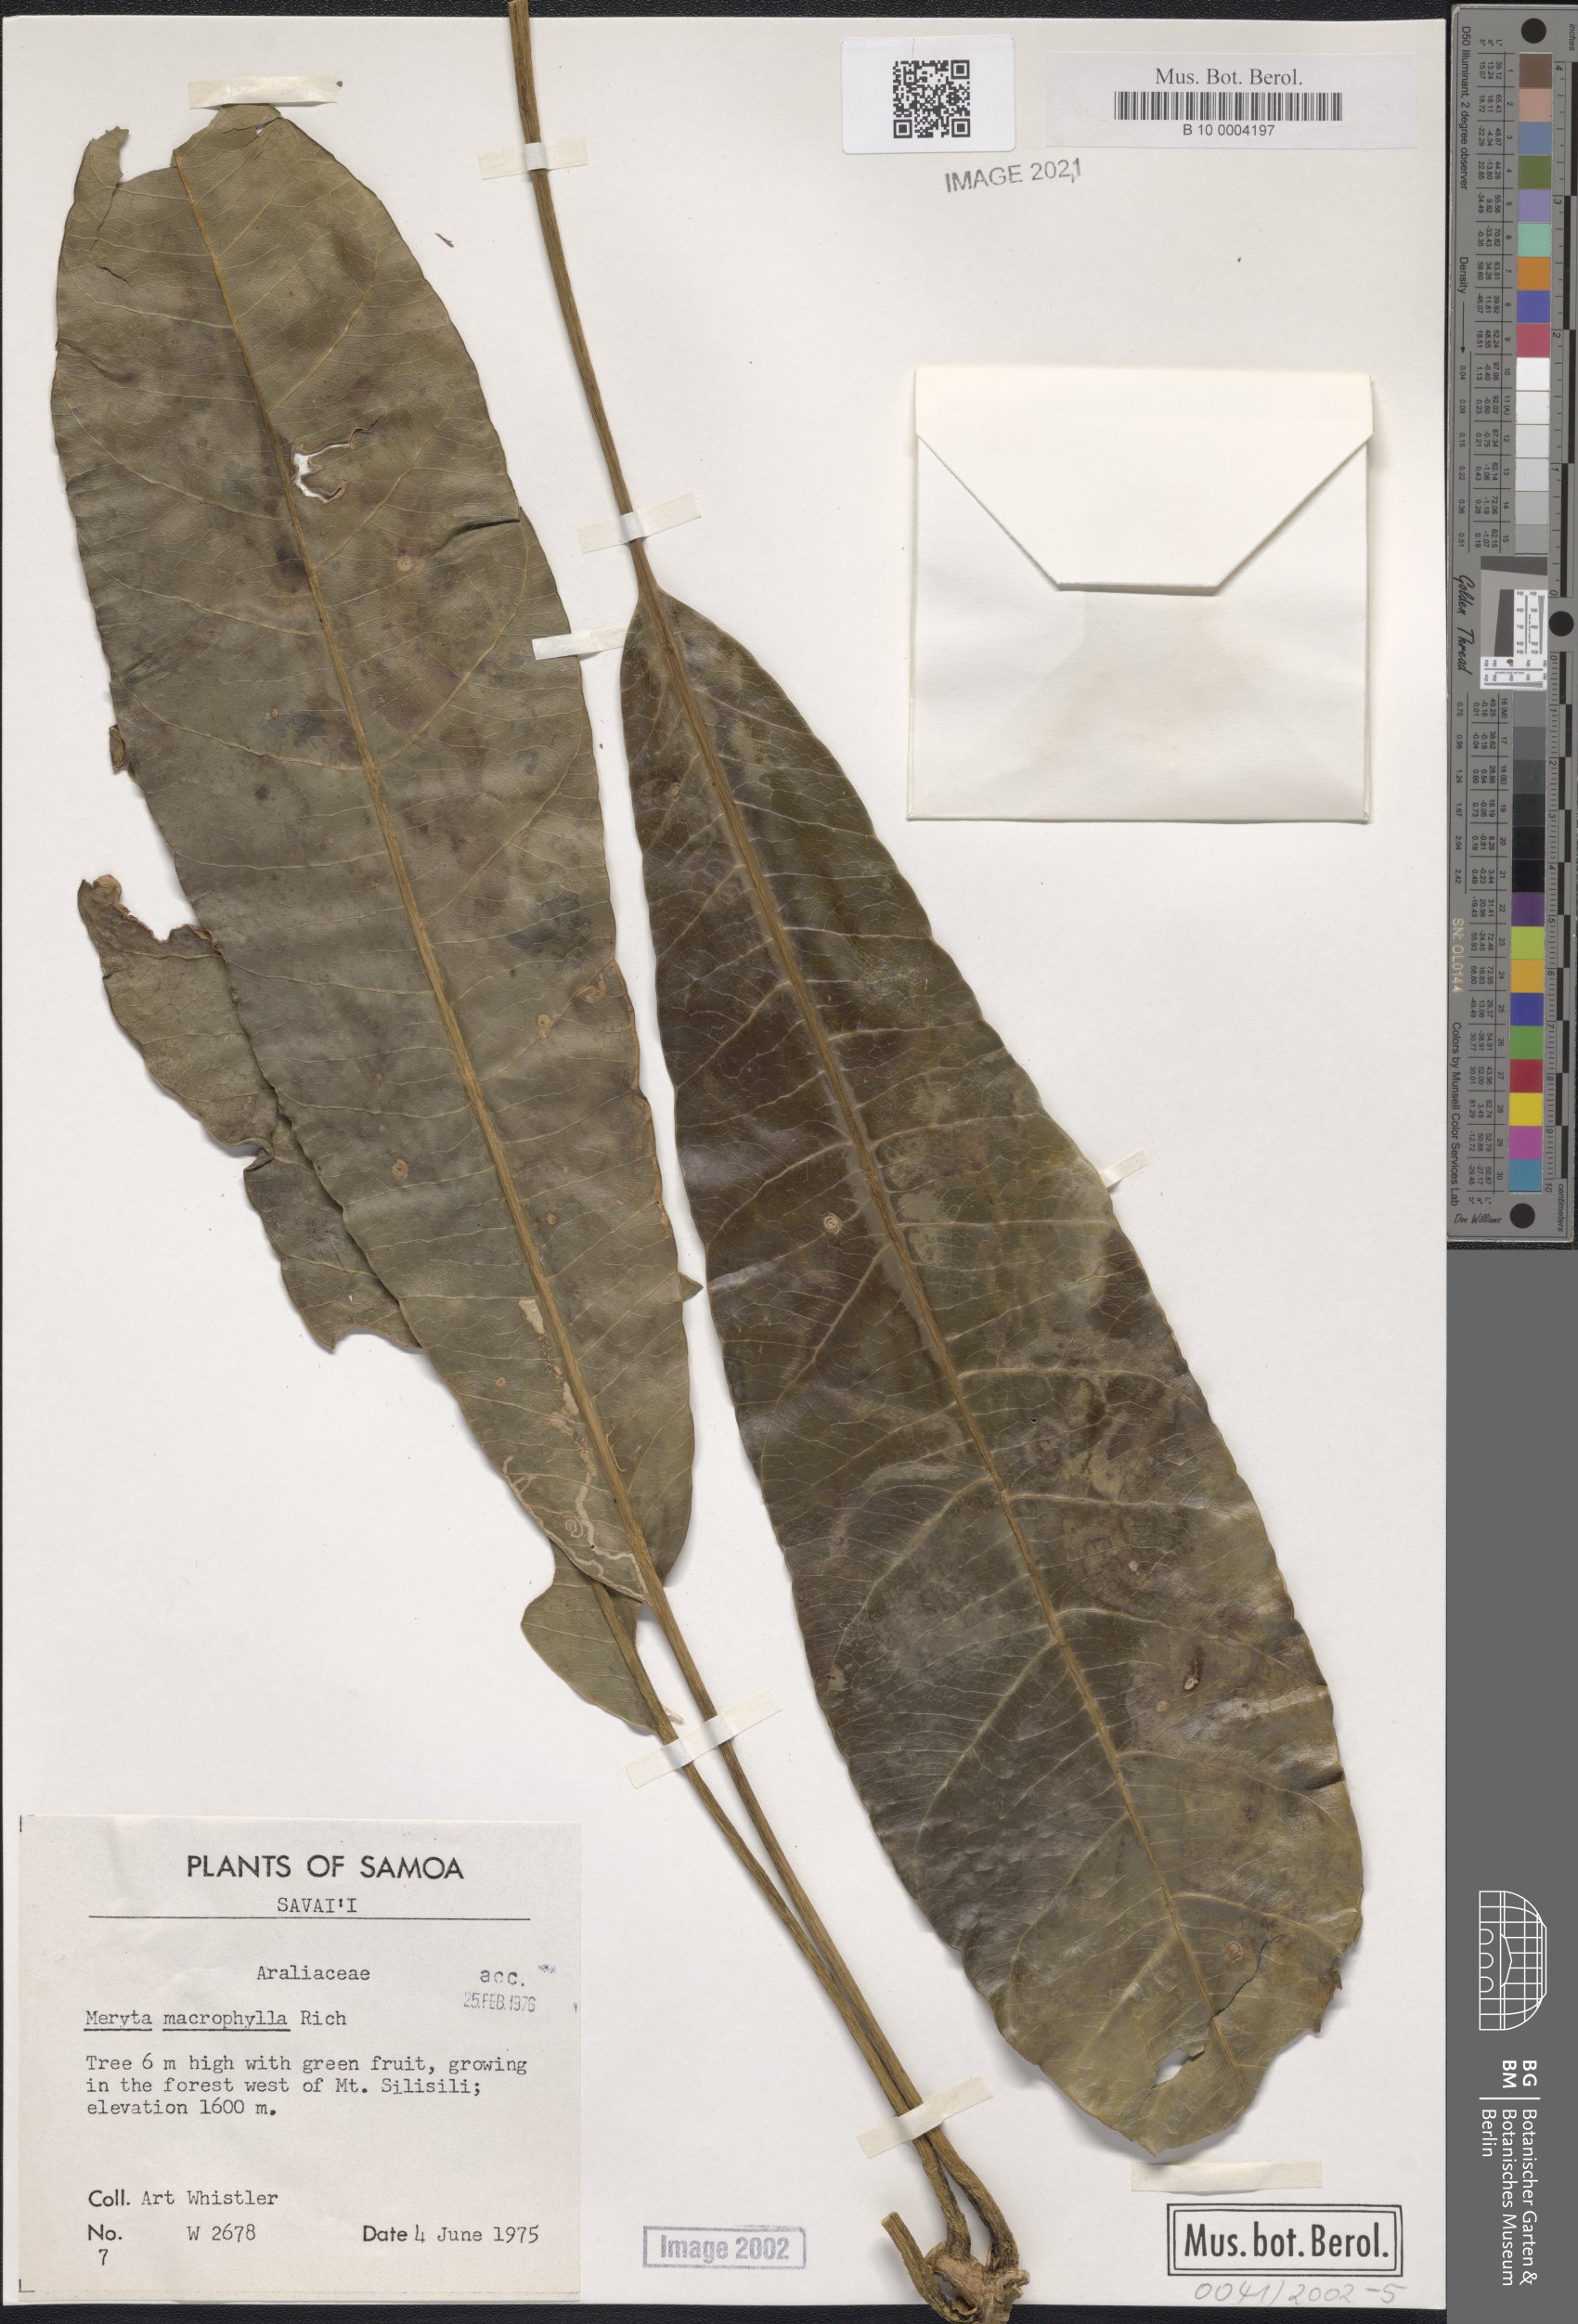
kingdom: Plantae
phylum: Tracheophyta
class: Magnoliopsida
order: Apiales
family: Araliaceae
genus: Meryta
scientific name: Meryta denhamii
